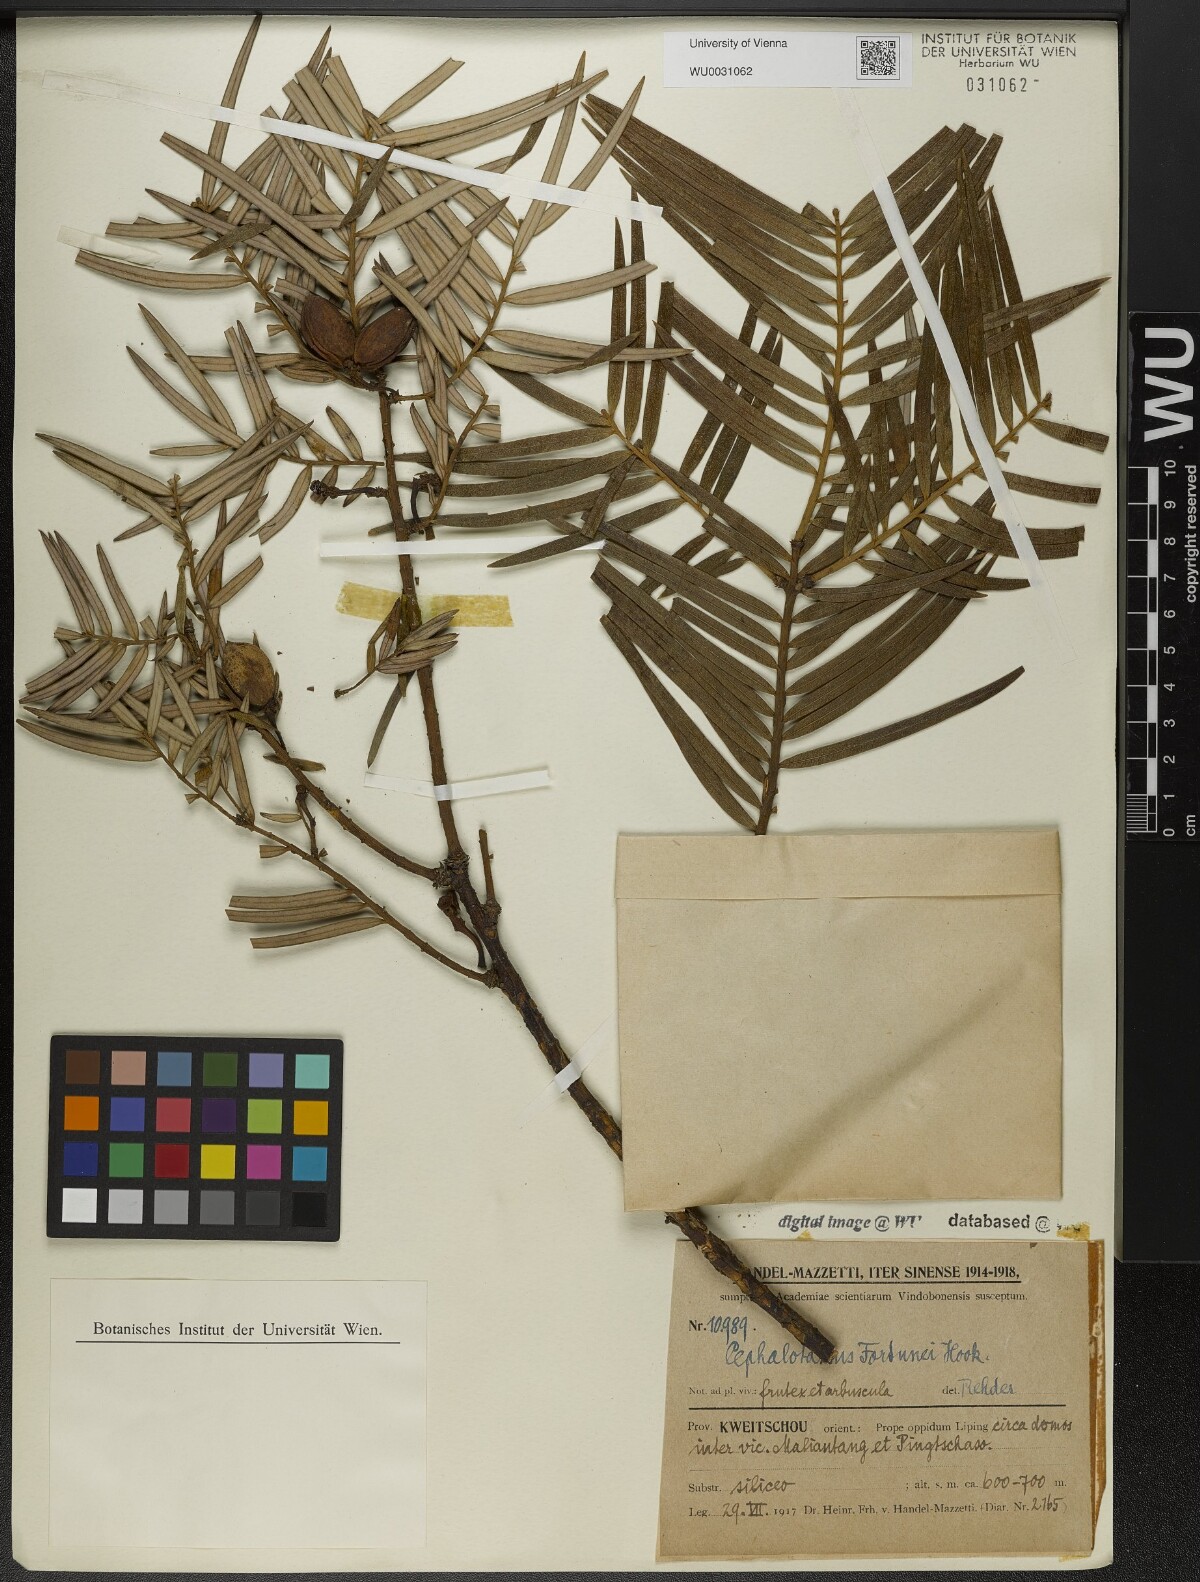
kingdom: Plantae
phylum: Tracheophyta
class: Pinopsida
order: Pinales
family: Cephalotaxaceae
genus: Cephalotaxus
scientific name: Cephalotaxus fortunei
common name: Chinese plum-yew
